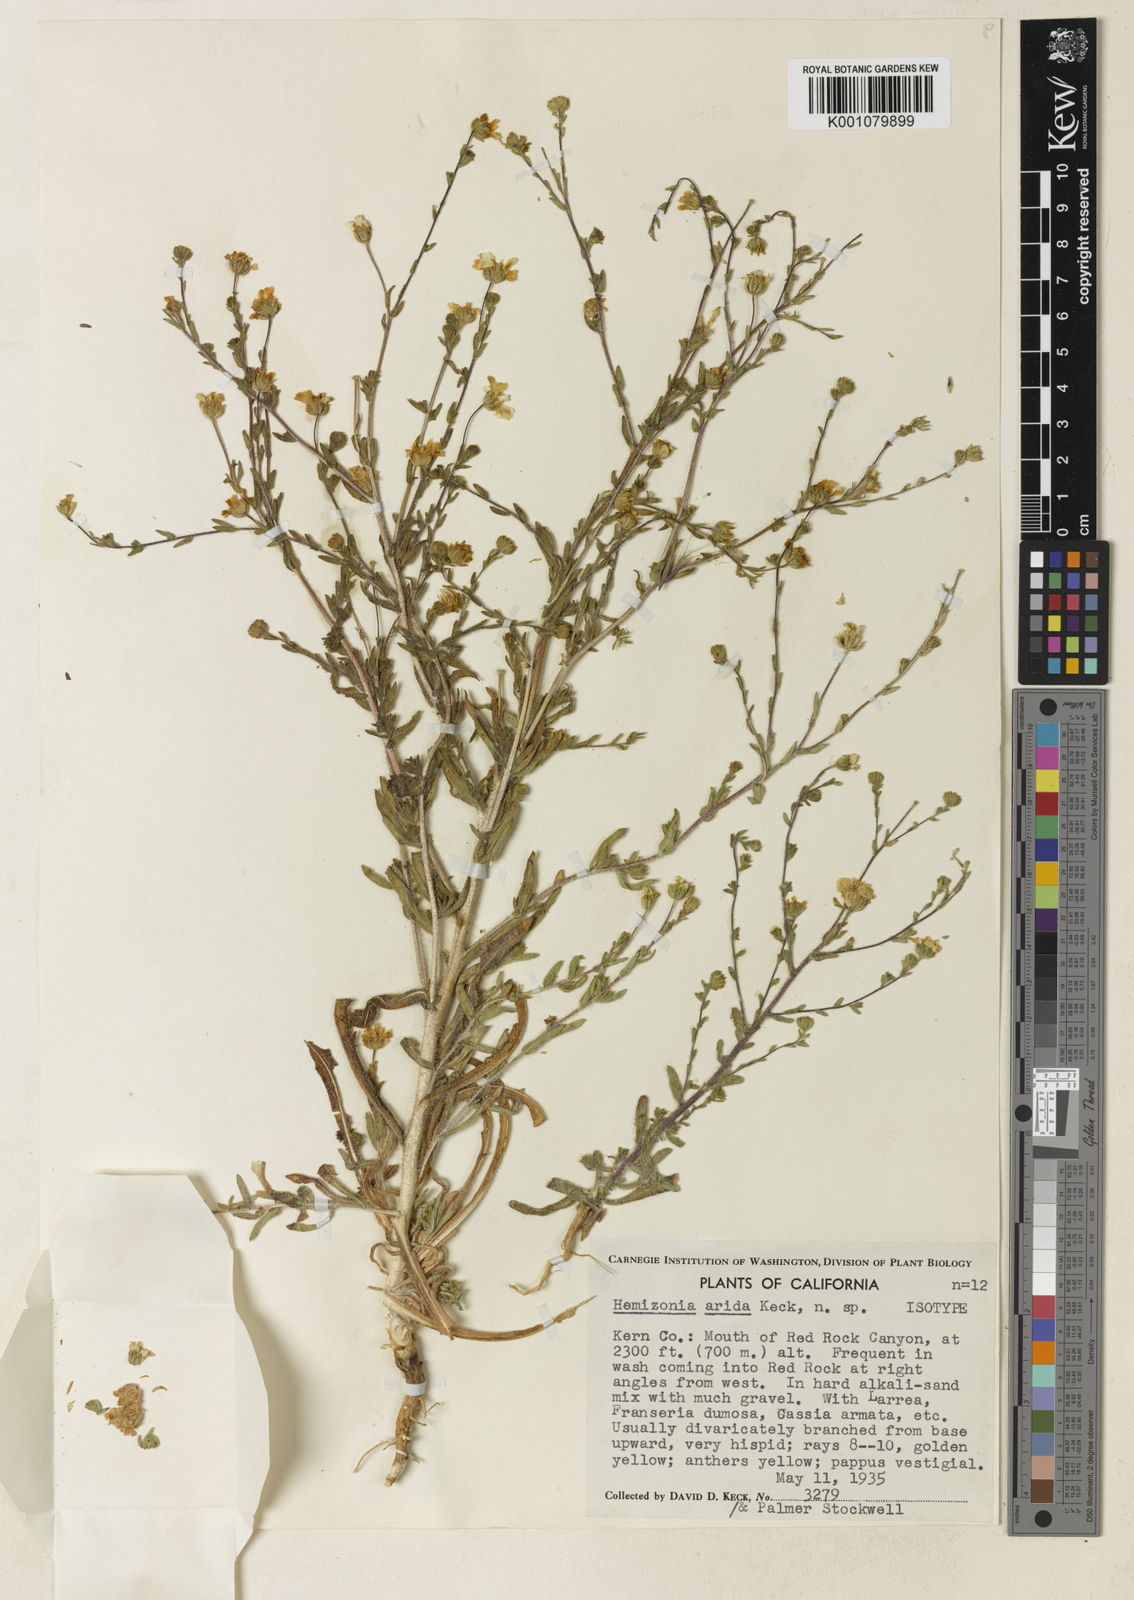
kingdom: Plantae
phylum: Tracheophyta
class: Magnoliopsida
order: Asterales
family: Asteraceae
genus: Deinandra
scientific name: Deinandra arida
